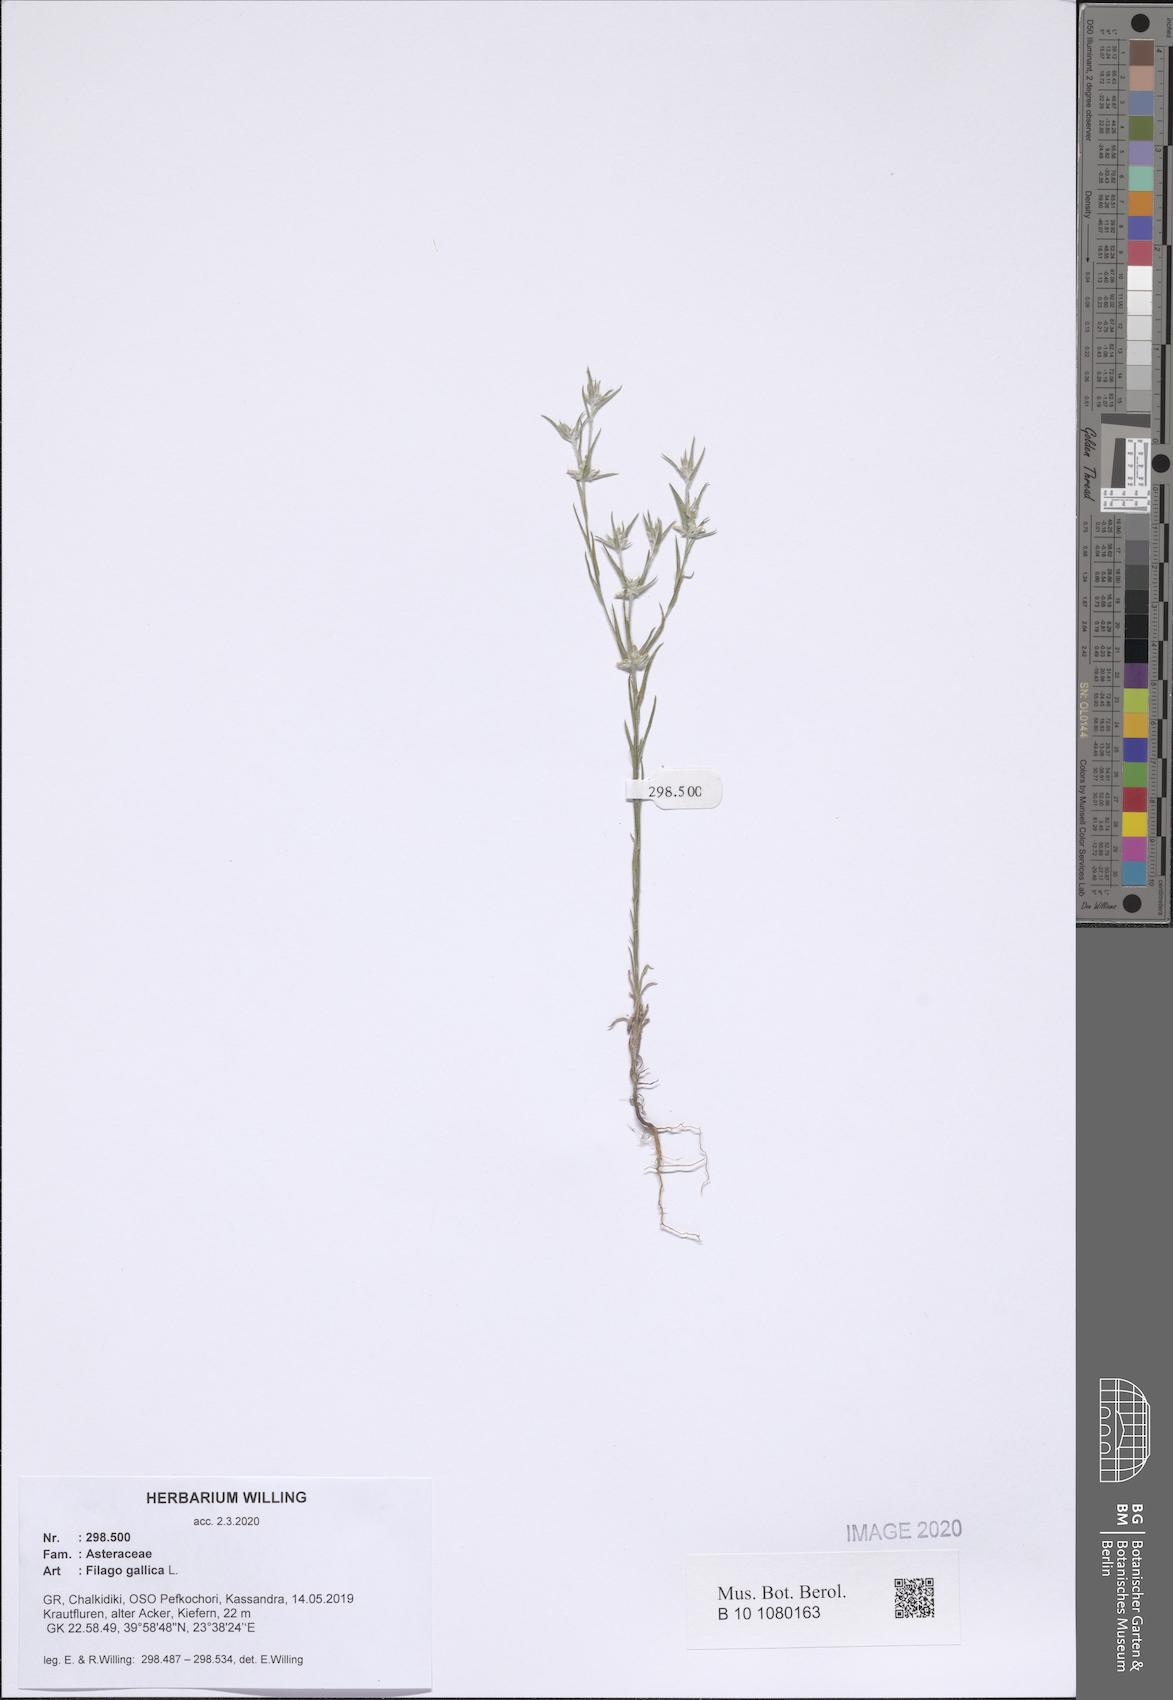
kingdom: Plantae
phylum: Tracheophyta
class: Magnoliopsida
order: Asterales
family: Asteraceae
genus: Logfia
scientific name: Logfia gallica
